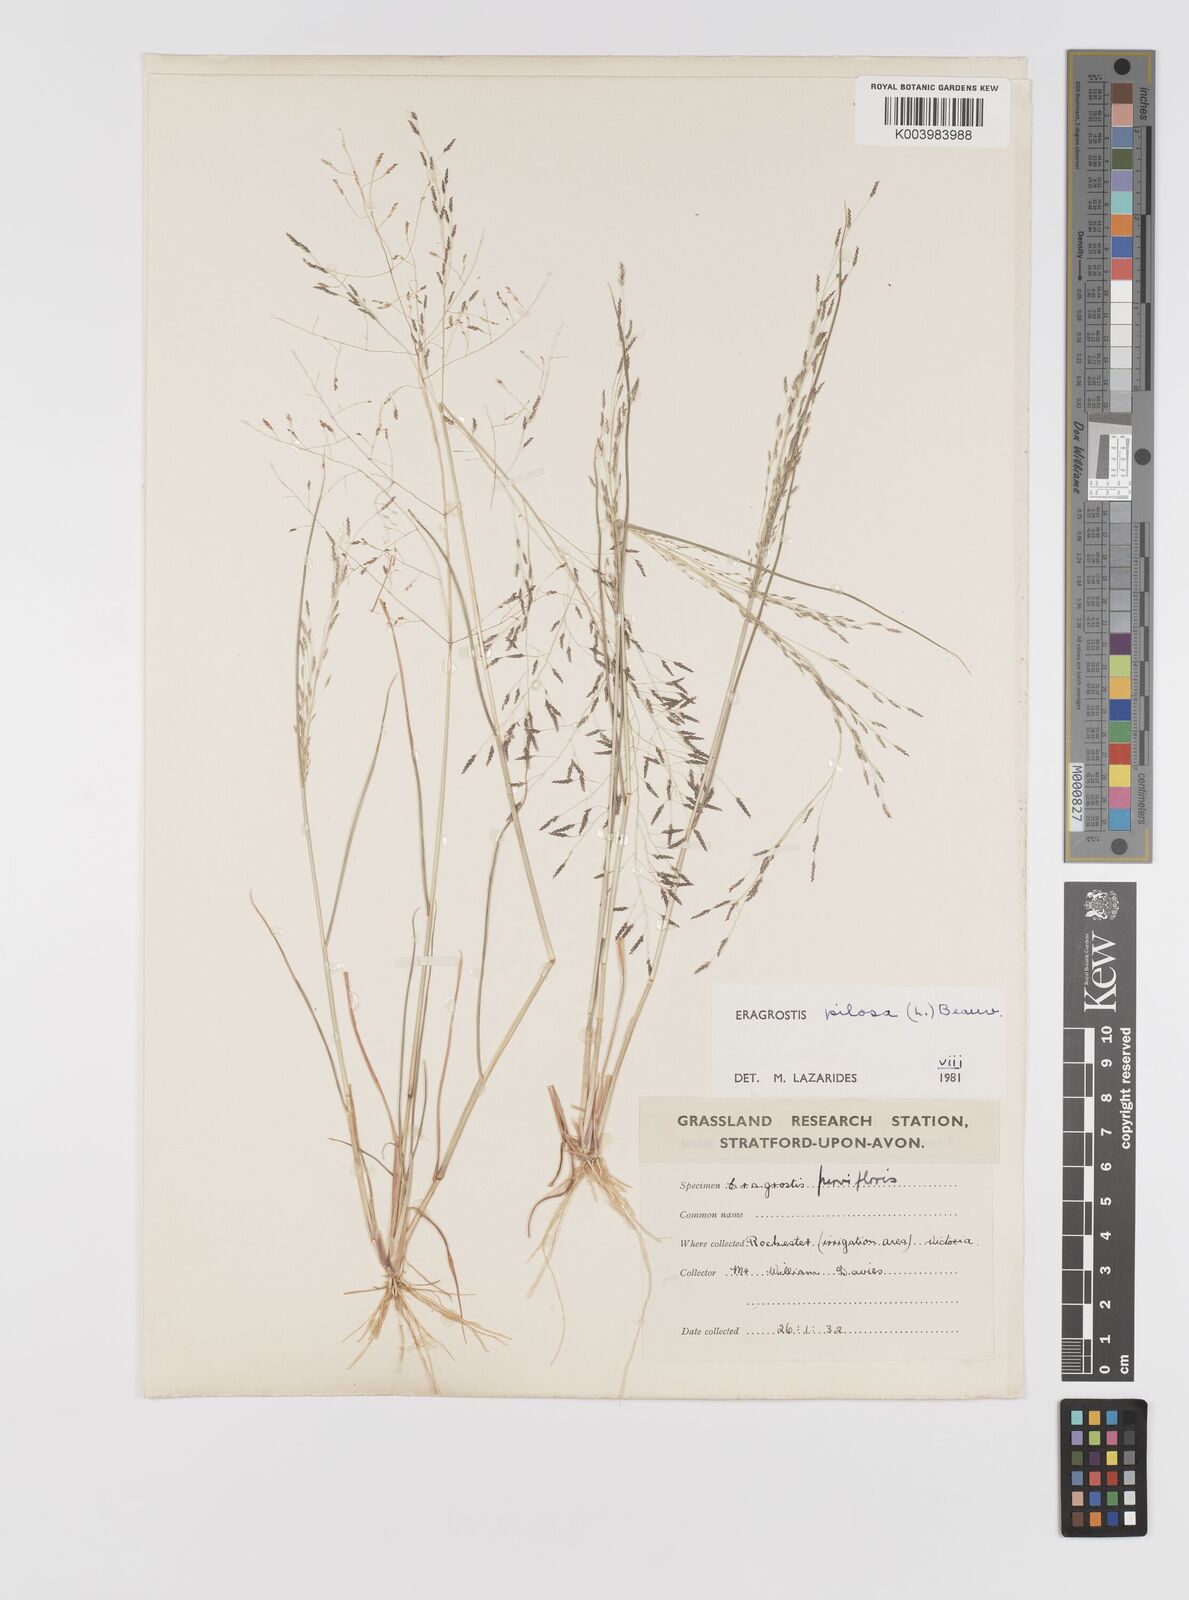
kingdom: Plantae
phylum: Tracheophyta
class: Liliopsida
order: Poales
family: Poaceae
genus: Eragrostis
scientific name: Eragrostis pilosa
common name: Indian lovegrass
